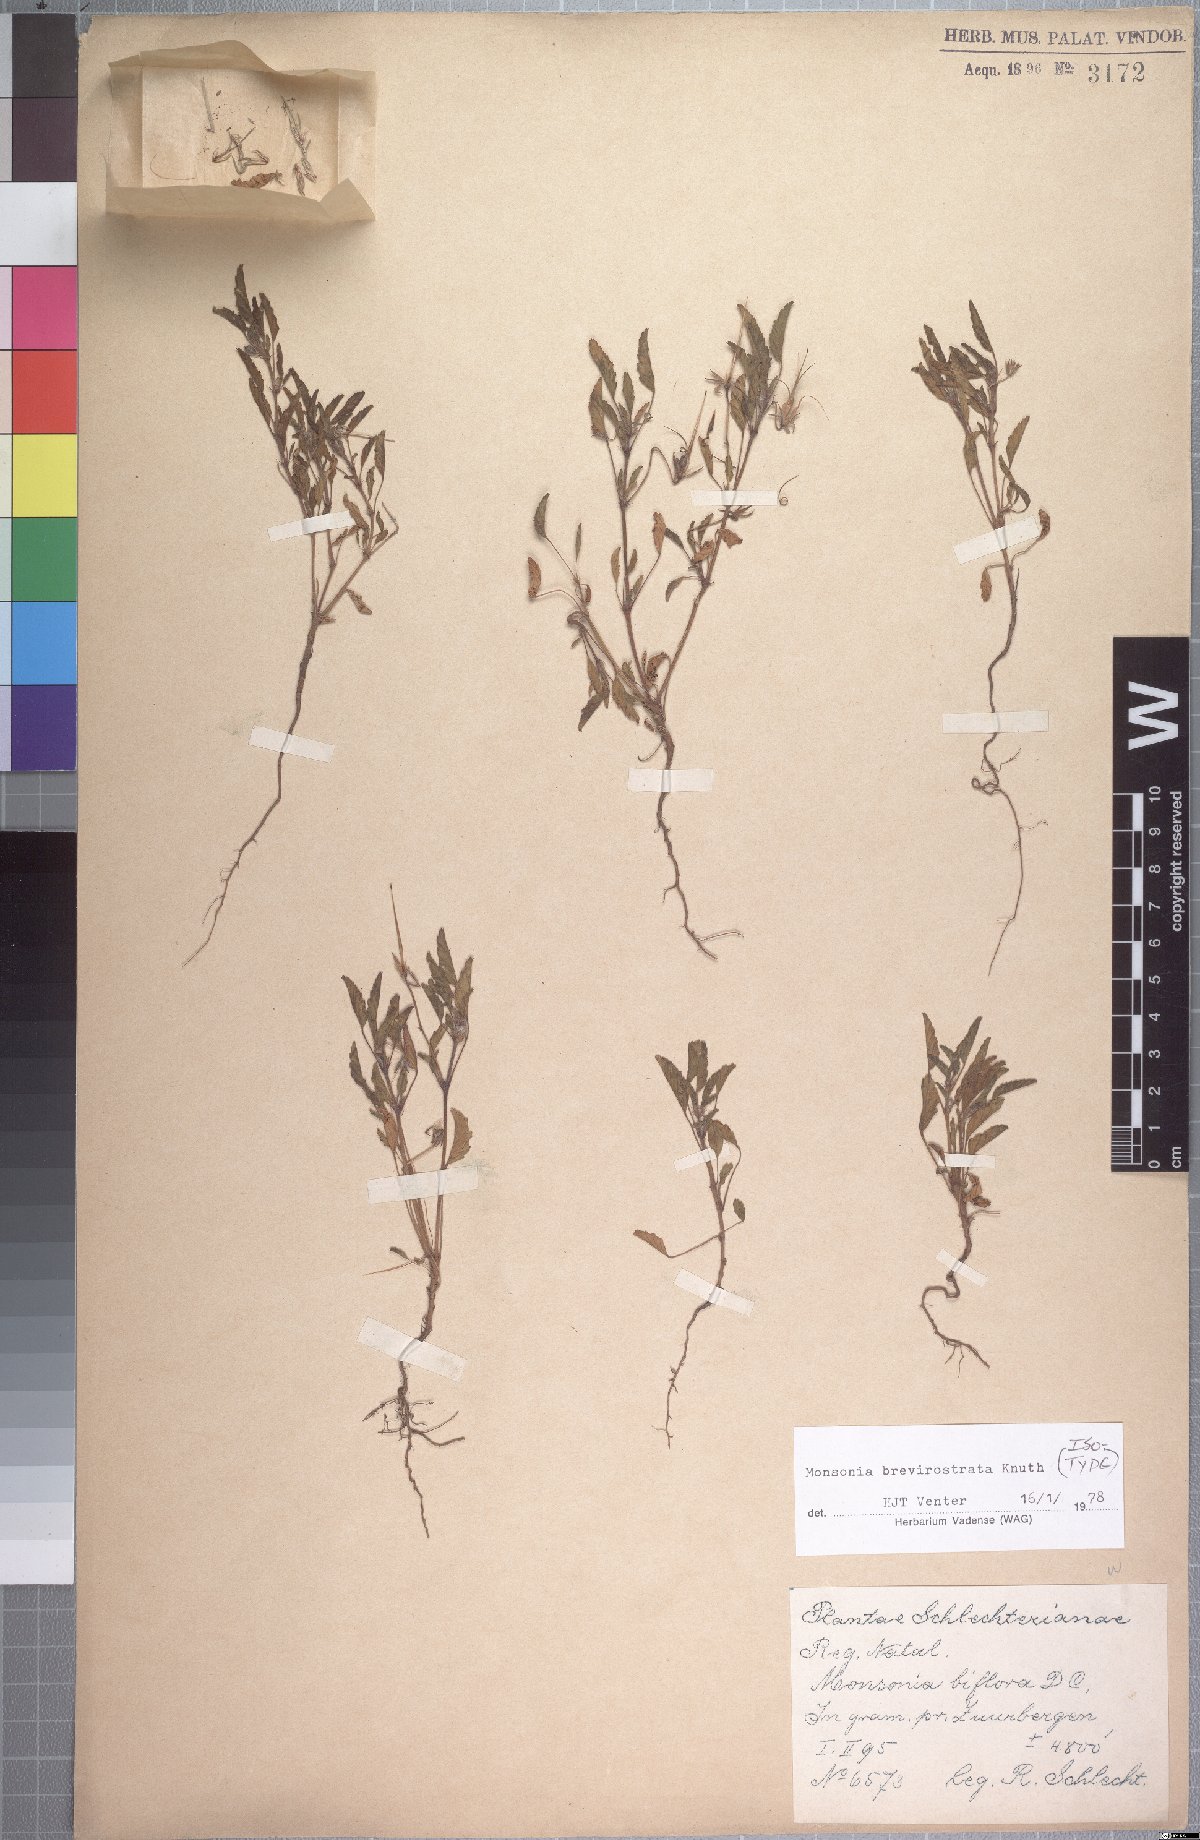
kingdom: Plantae
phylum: Tracheophyta
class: Magnoliopsida
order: Geraniales
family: Geraniaceae
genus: Monsonia
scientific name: Monsonia brevirostrata
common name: Short-fruited dysentery-herb
